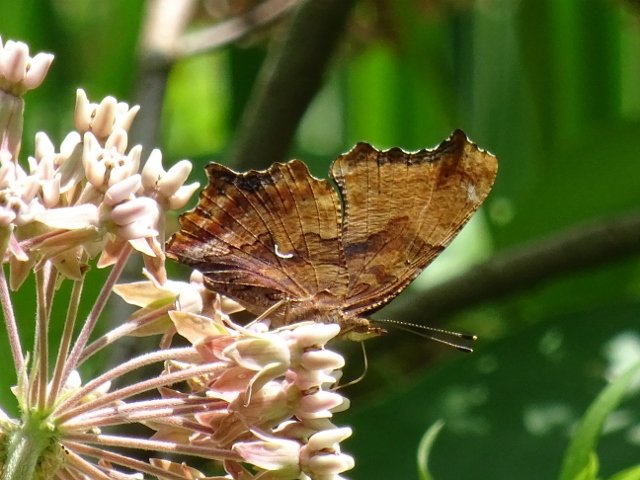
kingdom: Animalia
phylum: Arthropoda
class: Insecta
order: Lepidoptera
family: Nymphalidae
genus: Polygonia
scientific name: Polygonia comma
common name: Eastern Comma
